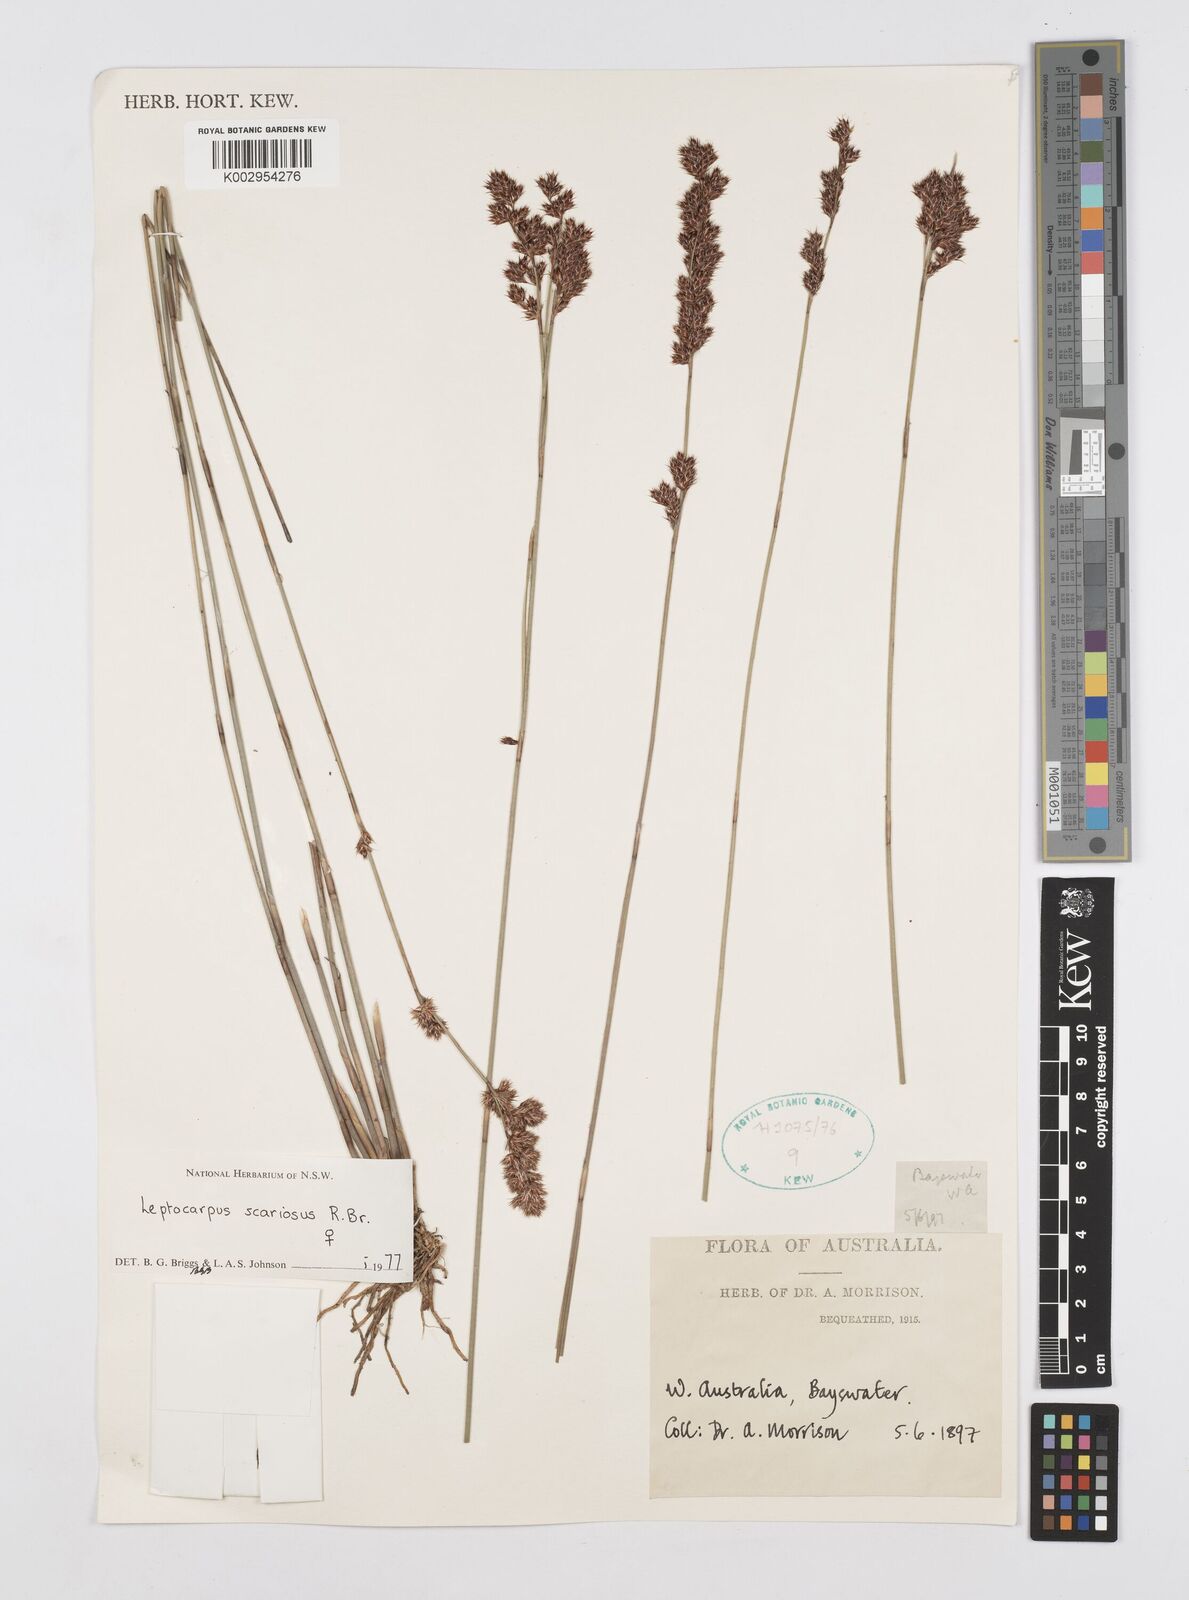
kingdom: Plantae
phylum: Tracheophyta
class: Liliopsida
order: Poales
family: Restionaceae
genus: Leptocarpus
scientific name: Leptocarpus scariosus
